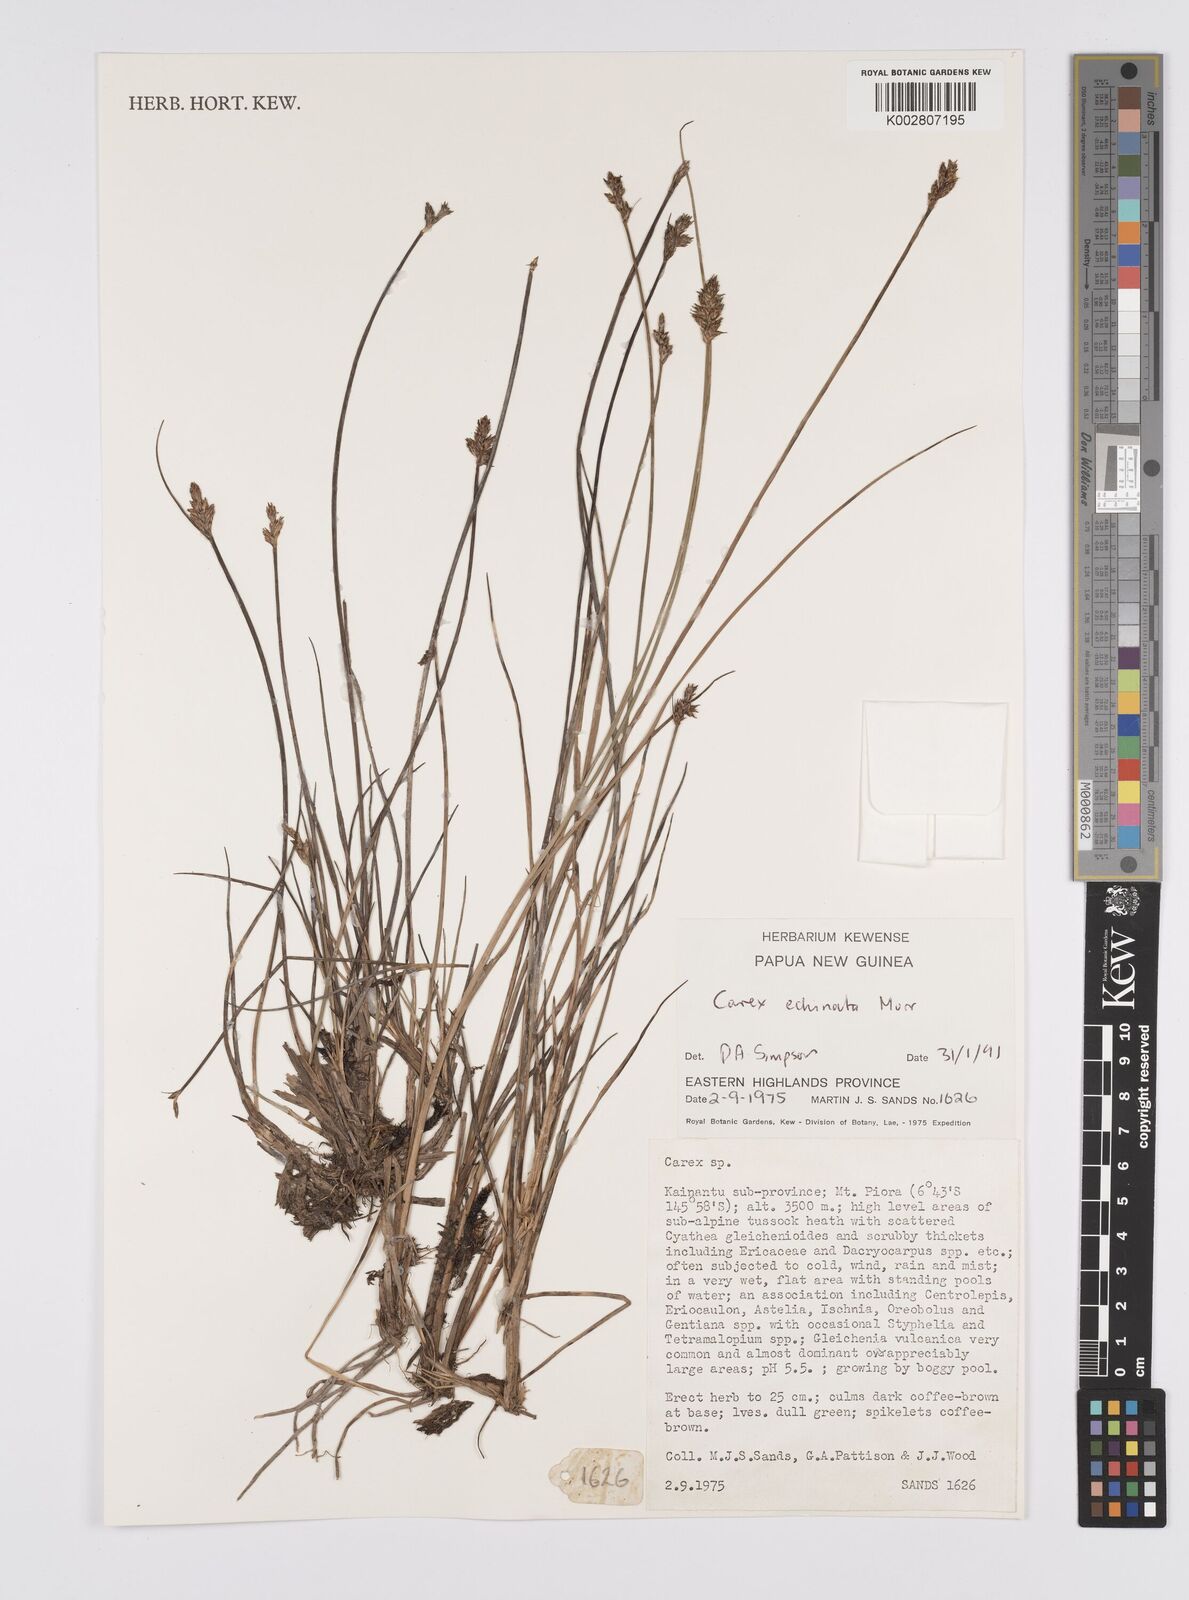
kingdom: Plantae
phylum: Tracheophyta
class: Liliopsida
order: Poales
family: Cyperaceae
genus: Carex
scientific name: Carex echinata
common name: Star sedge
